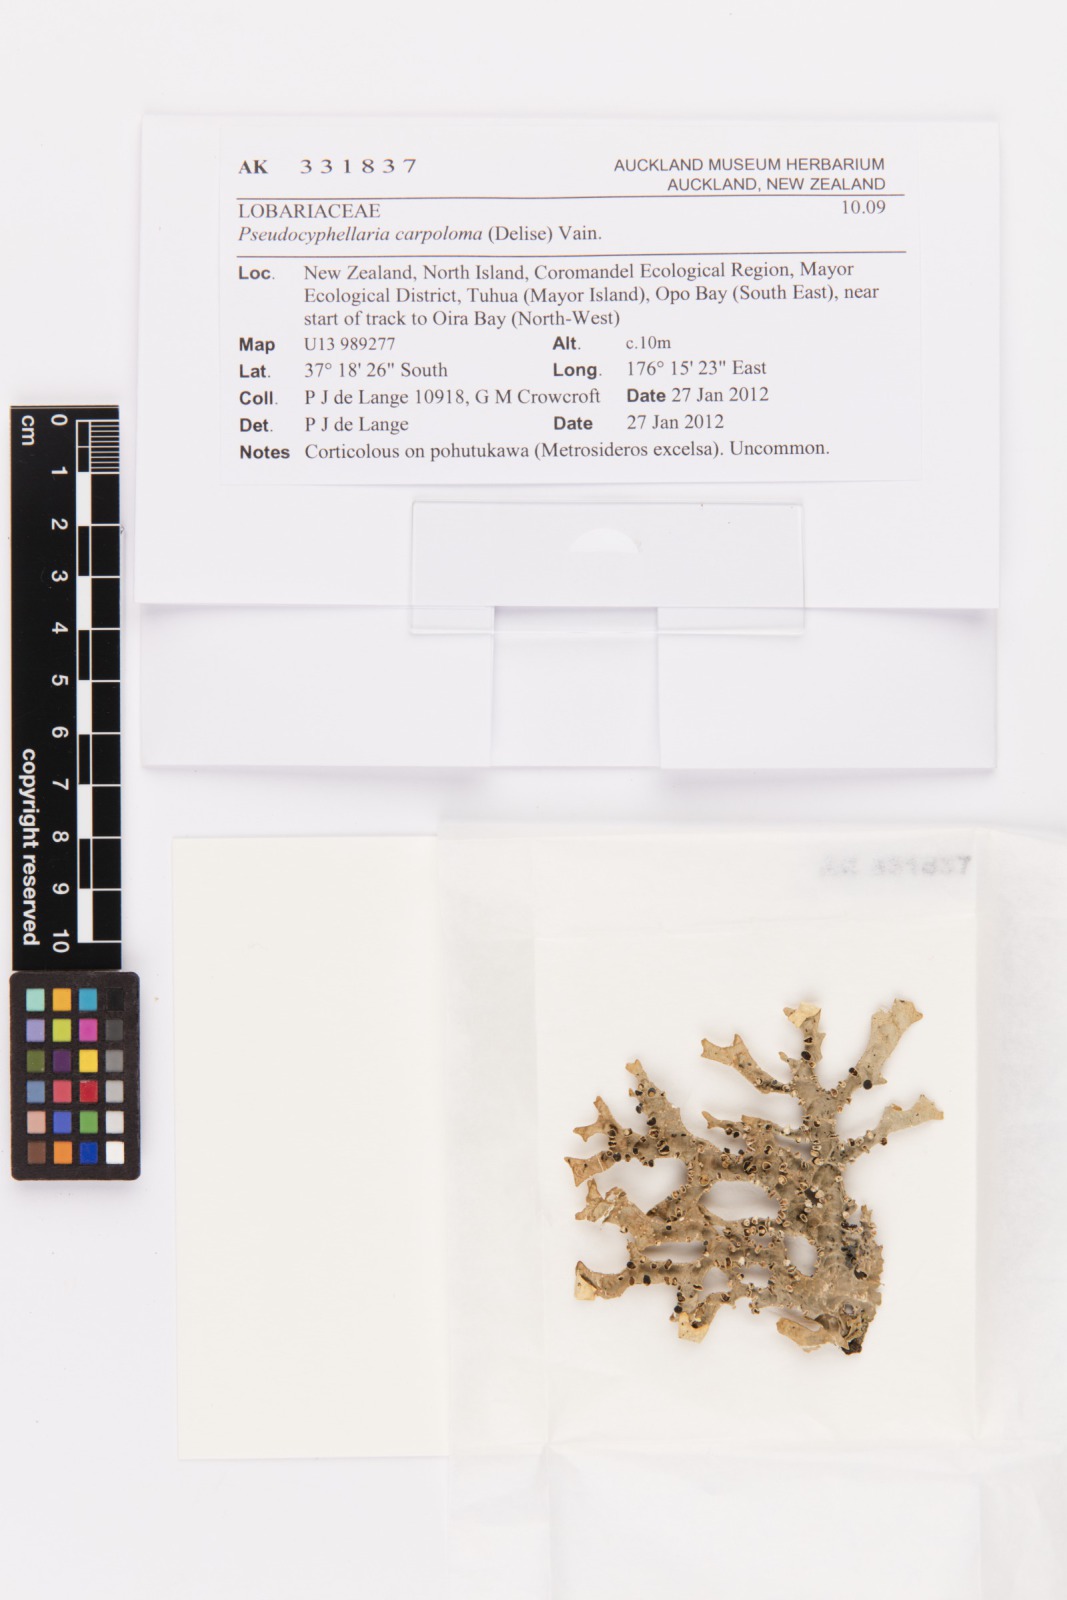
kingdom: Fungi
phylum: Ascomycota
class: Lecanoromycetes
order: Peltigerales
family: Lobariaceae
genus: Pseudocyphellaria
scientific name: Pseudocyphellaria carpoloma
